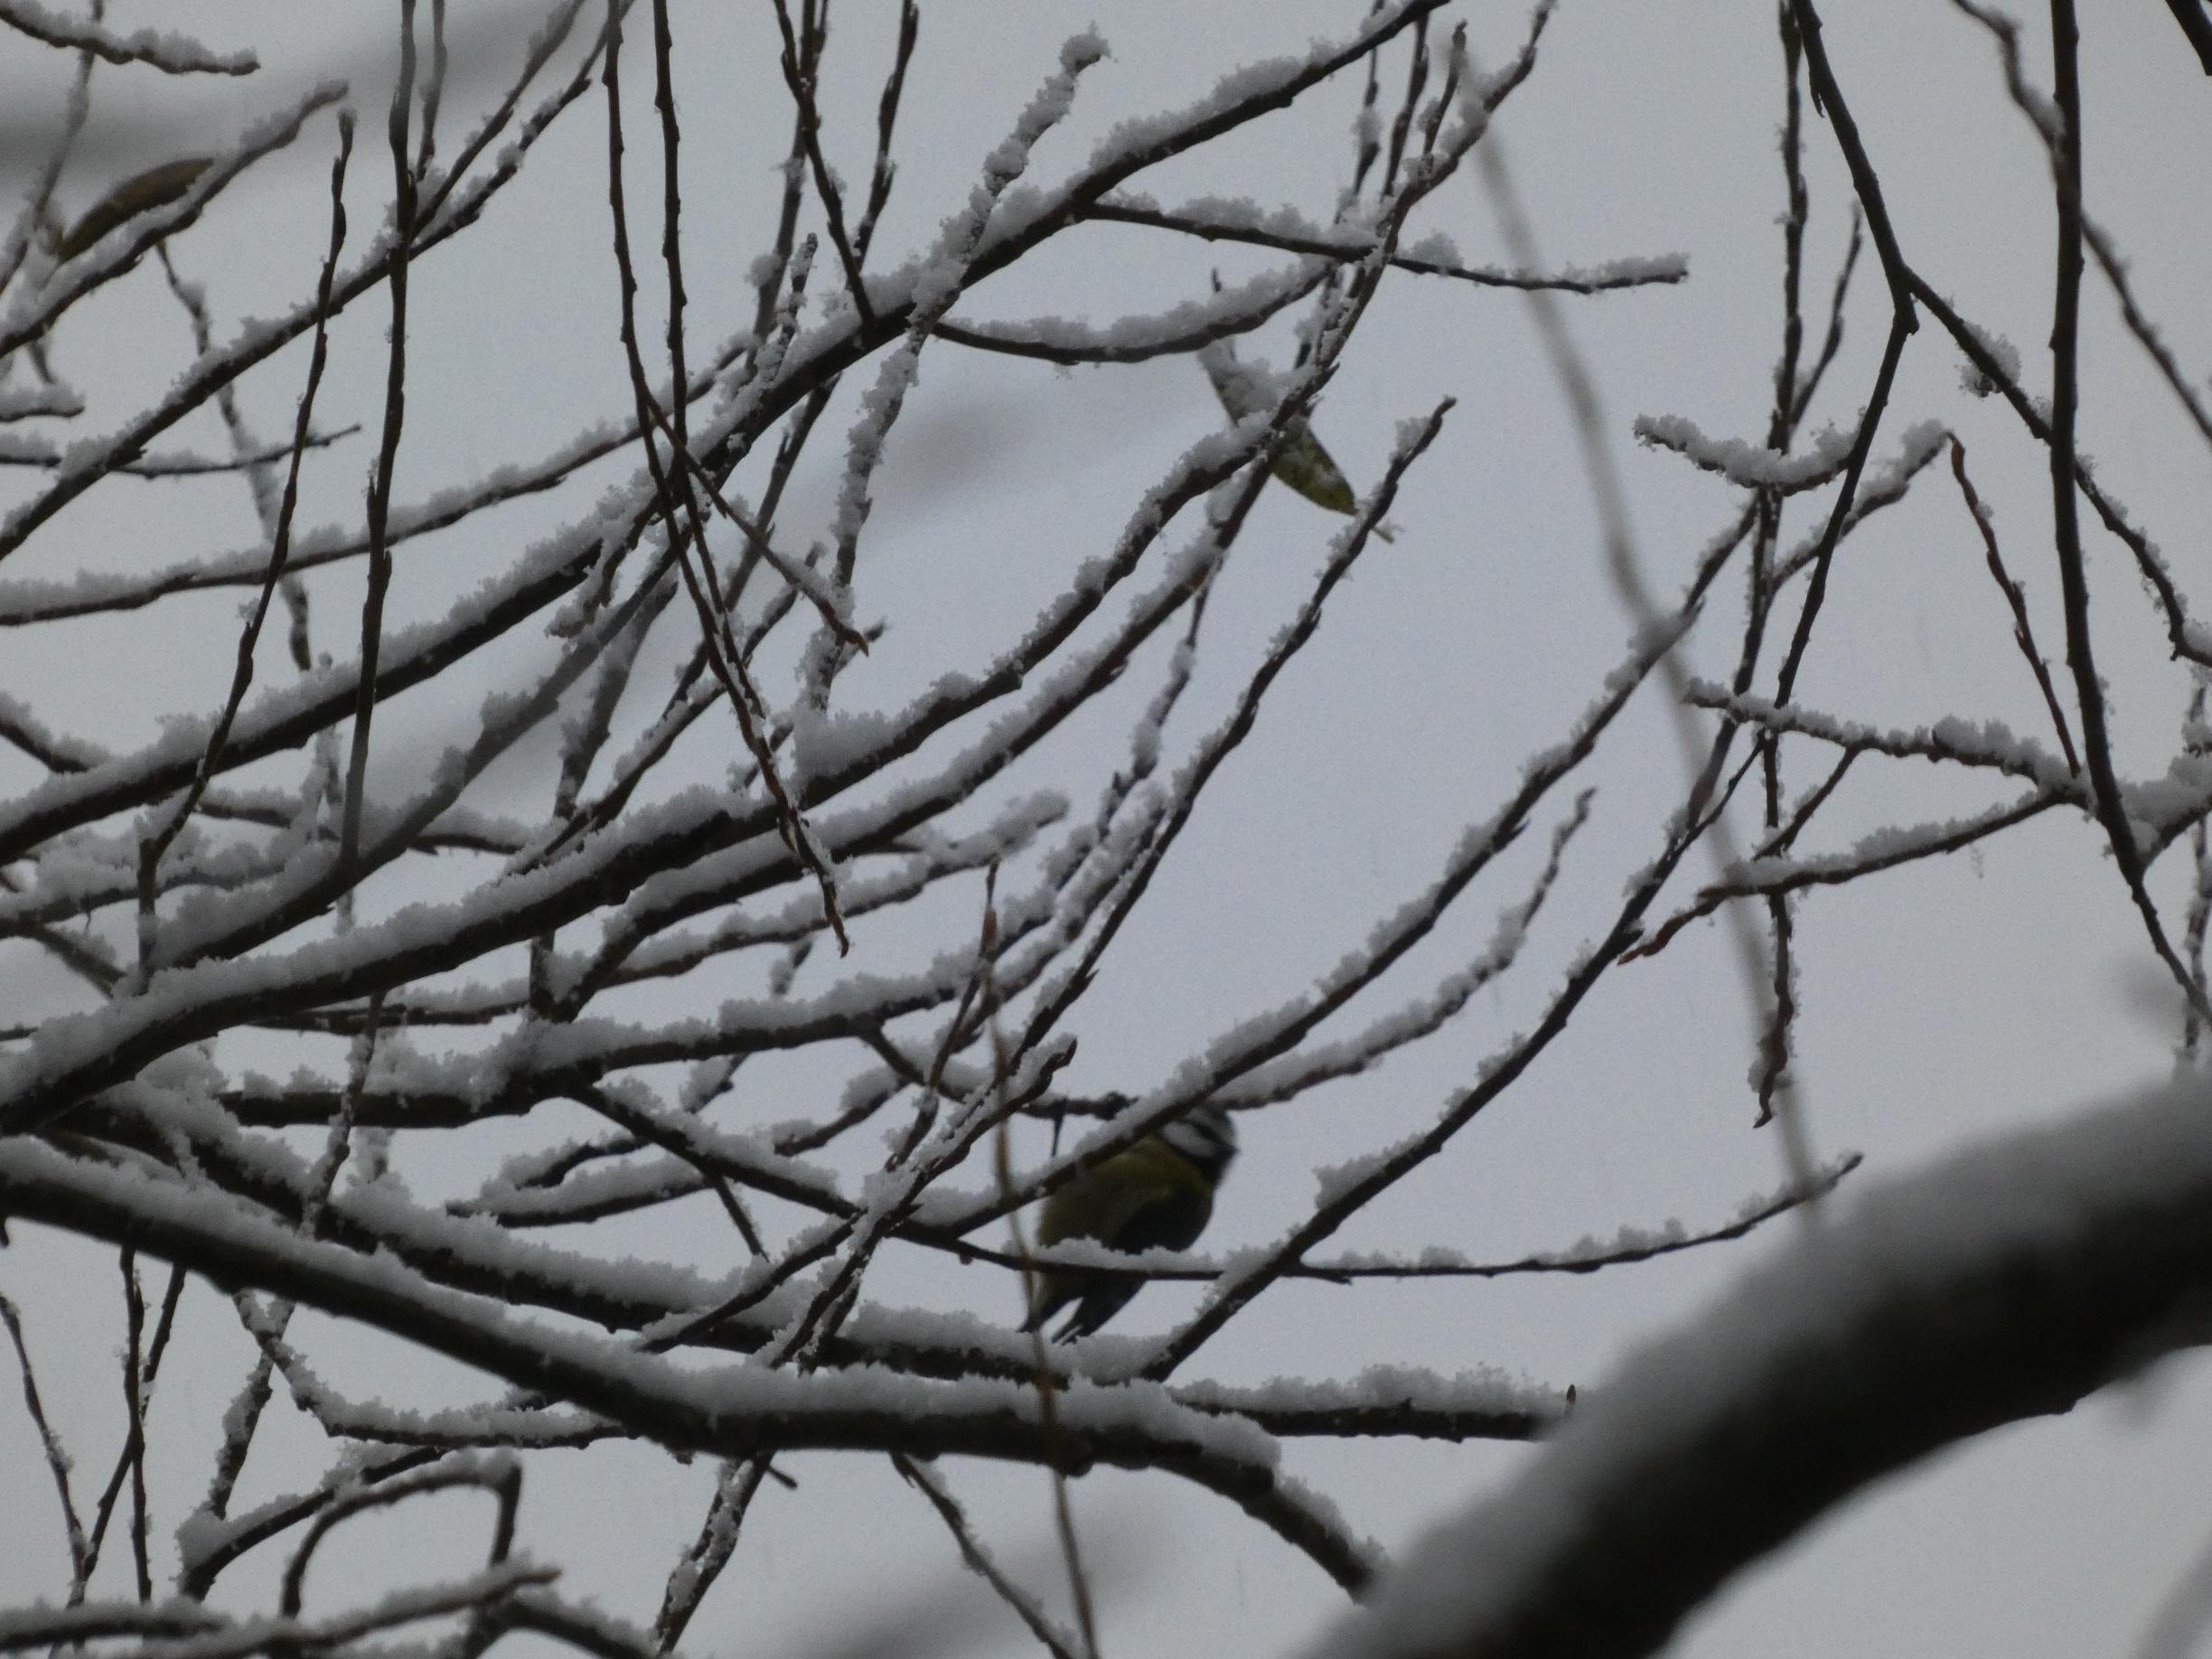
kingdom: Animalia
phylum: Chordata
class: Aves
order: Passeriformes
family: Paridae
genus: Cyanistes
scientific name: Cyanistes caeruleus
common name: Blåmejse
